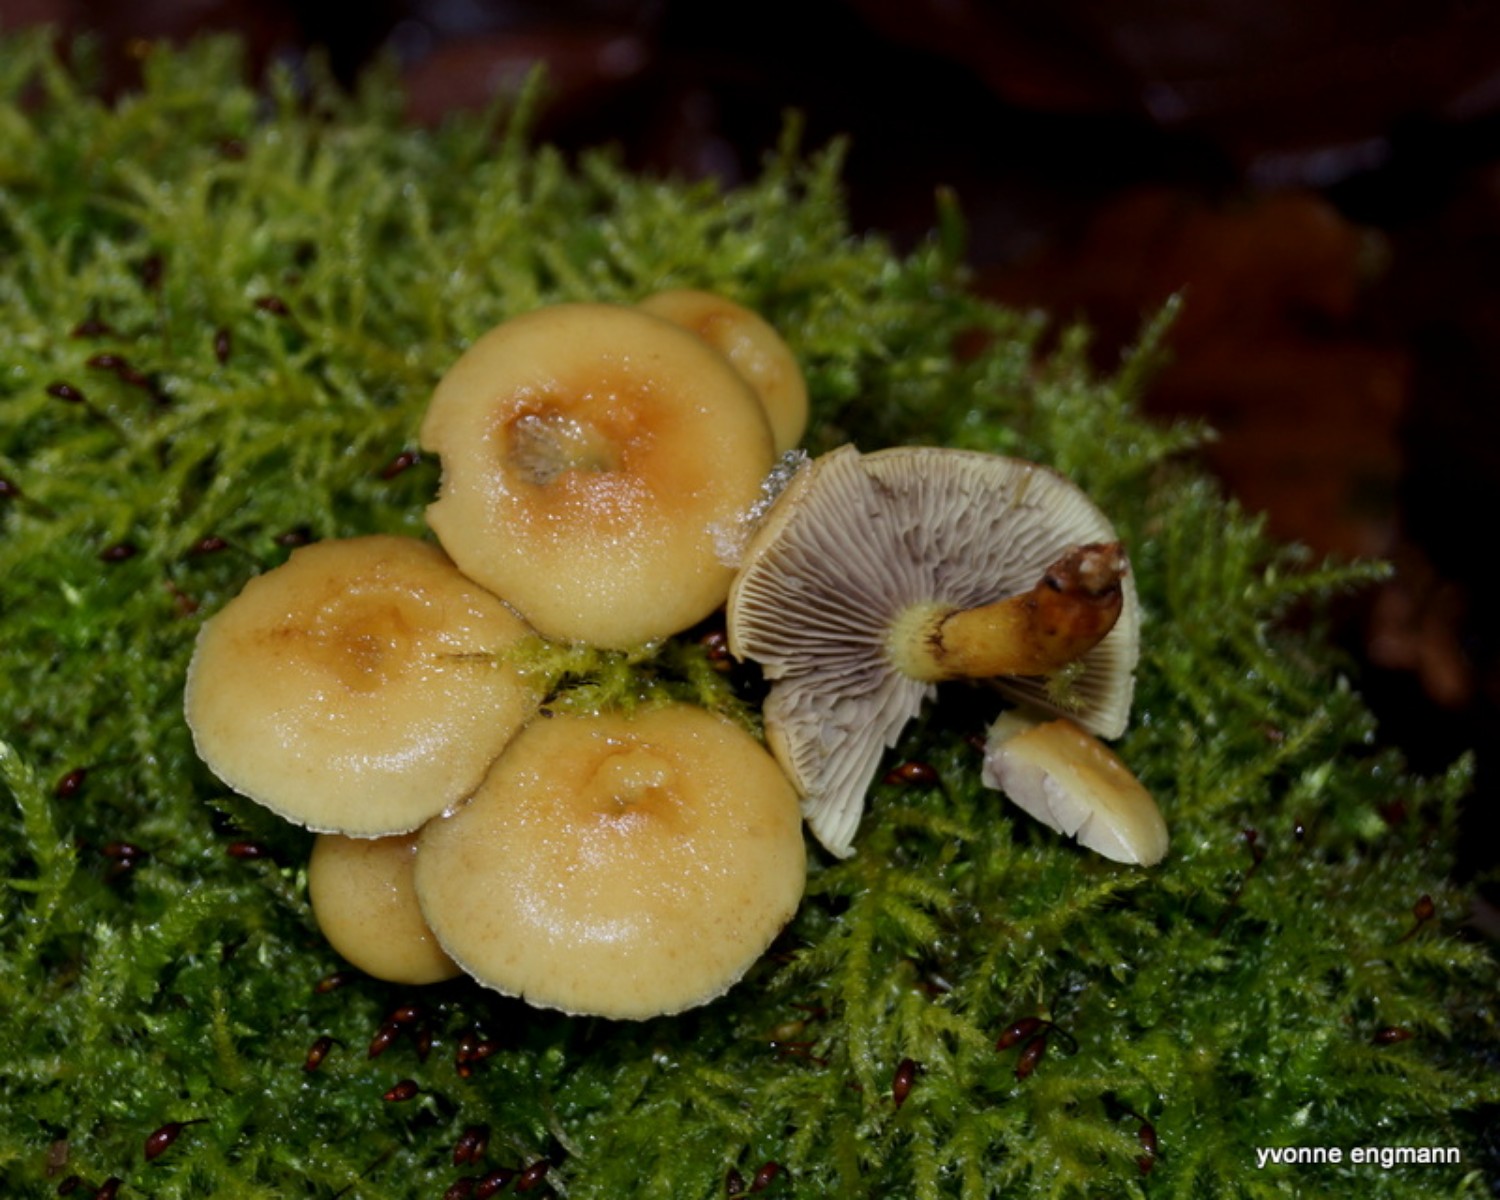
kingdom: Fungi
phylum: Basidiomycota
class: Agaricomycetes
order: Agaricales
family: Strophariaceae
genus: Hypholoma
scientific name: Hypholoma capnoides
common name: gran-svovlhat
